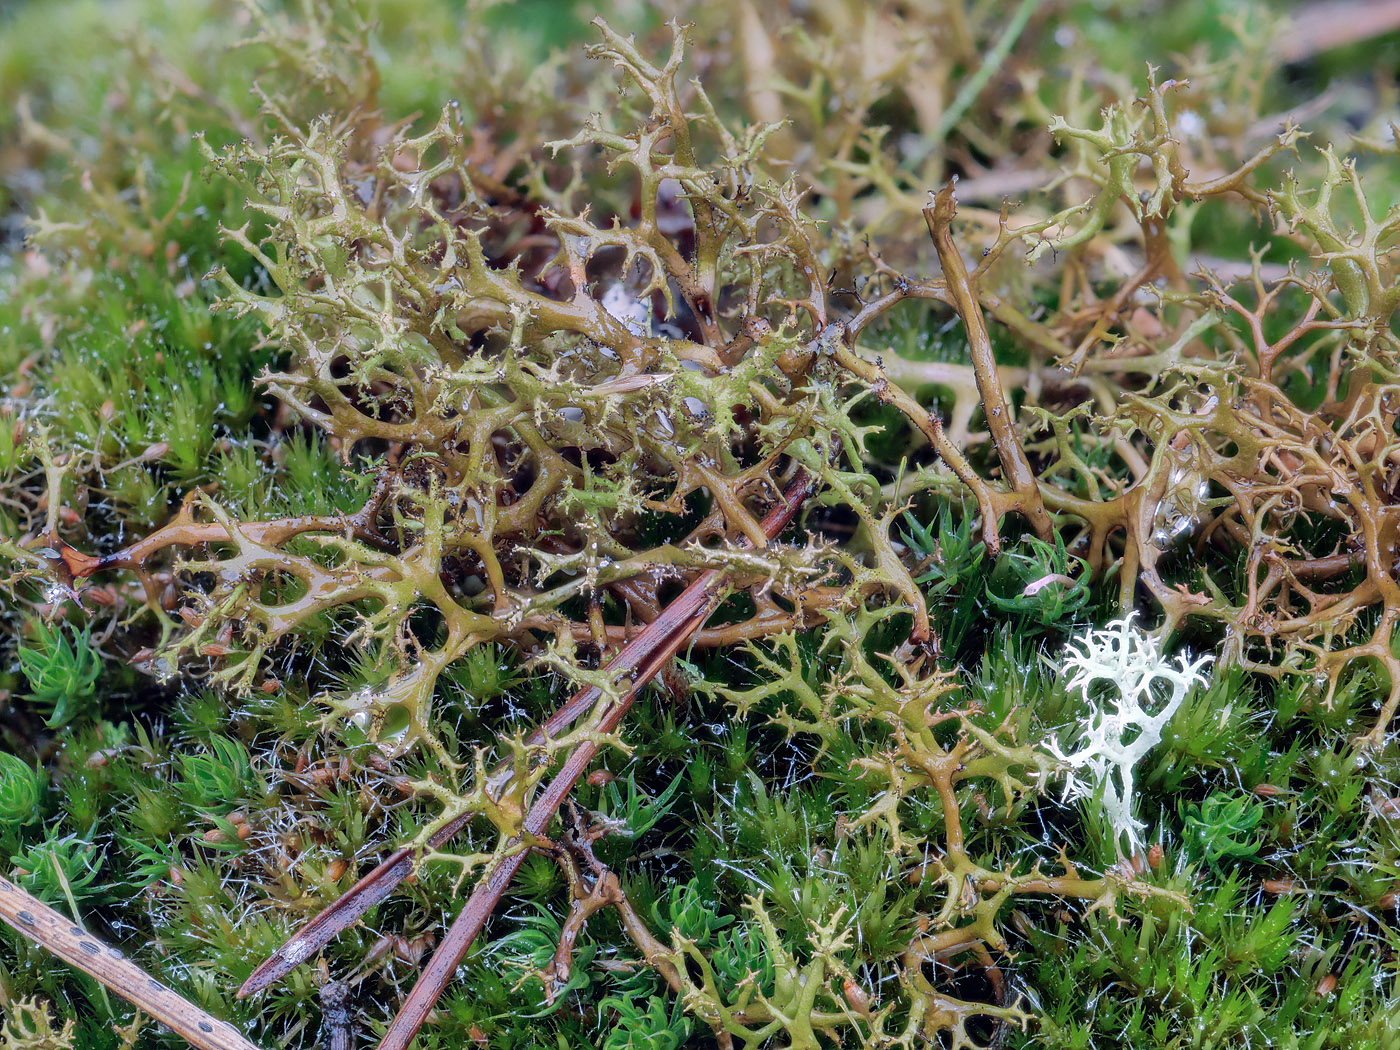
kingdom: Fungi
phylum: Ascomycota
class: Lecanoromycetes
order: Lecanorales
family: Parmeliaceae
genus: Cetraria
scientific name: Cetraria muricata
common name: tue-tjørnelav
